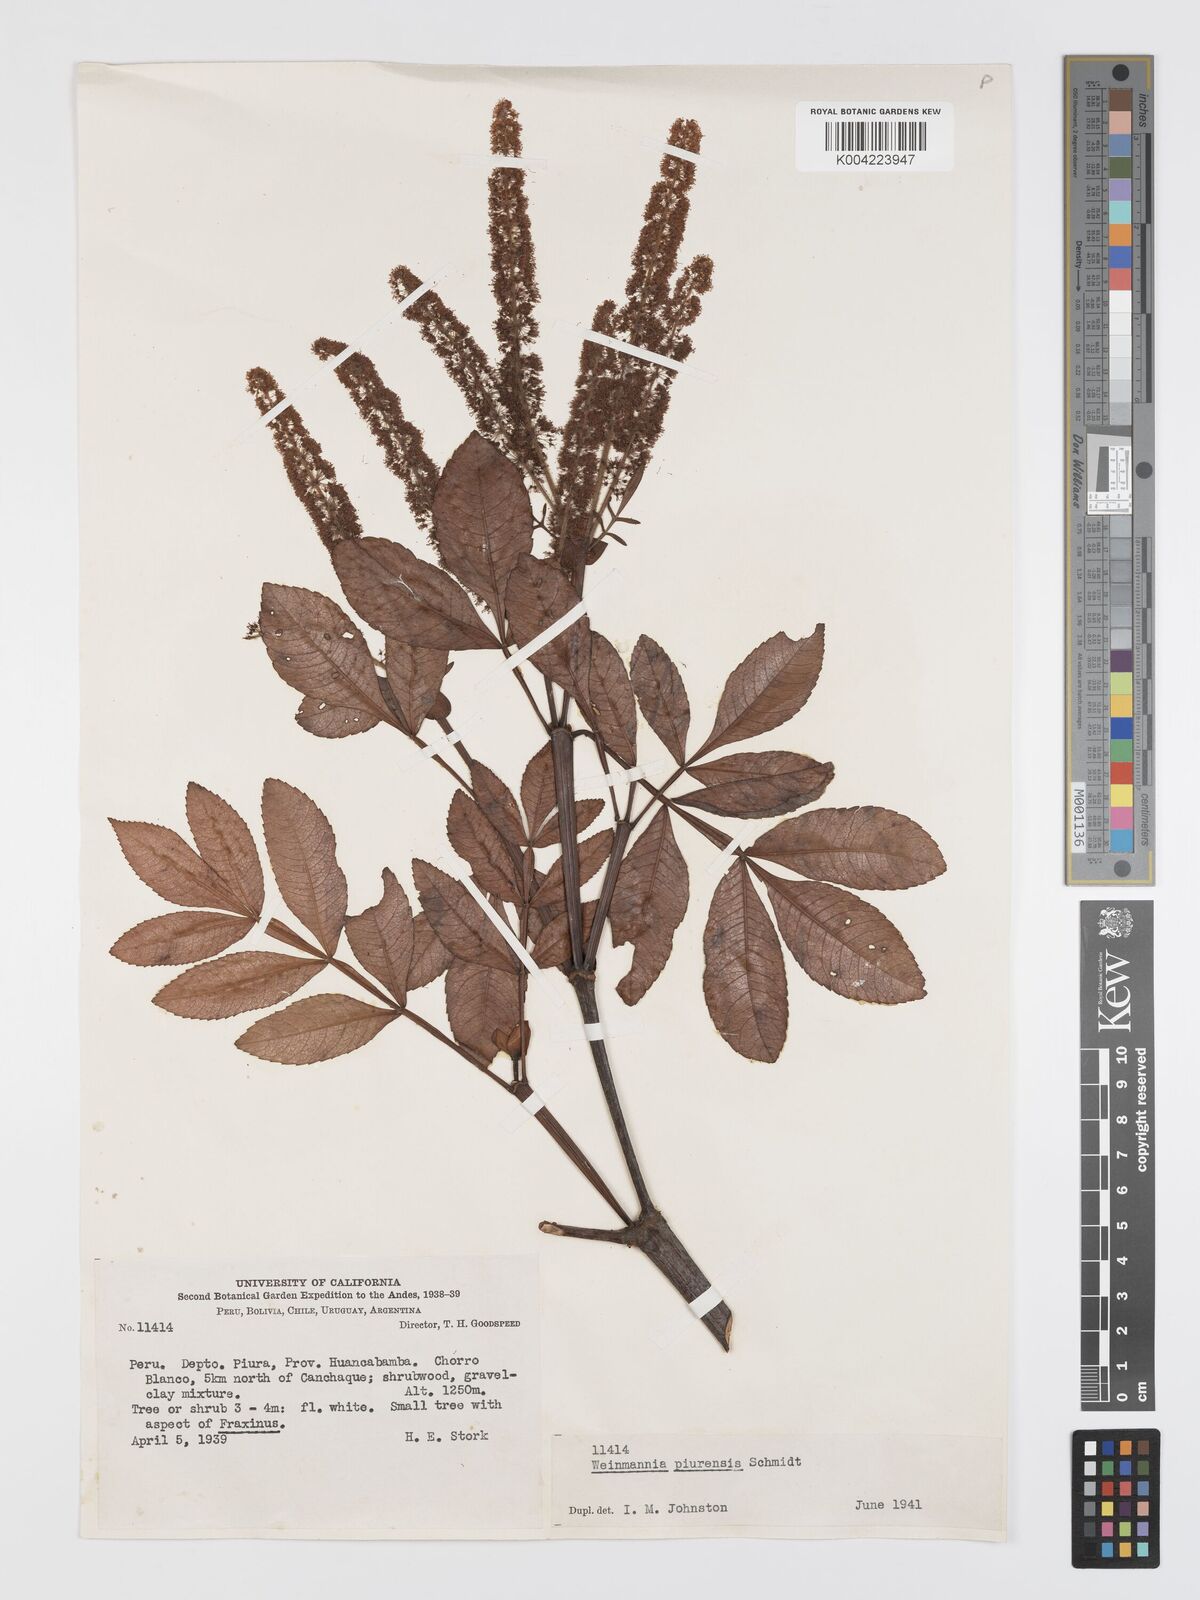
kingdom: Plantae
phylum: Tracheophyta
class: Magnoliopsida
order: Oxalidales
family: Cunoniaceae
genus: Weinmannia
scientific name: Weinmannia piurensis
